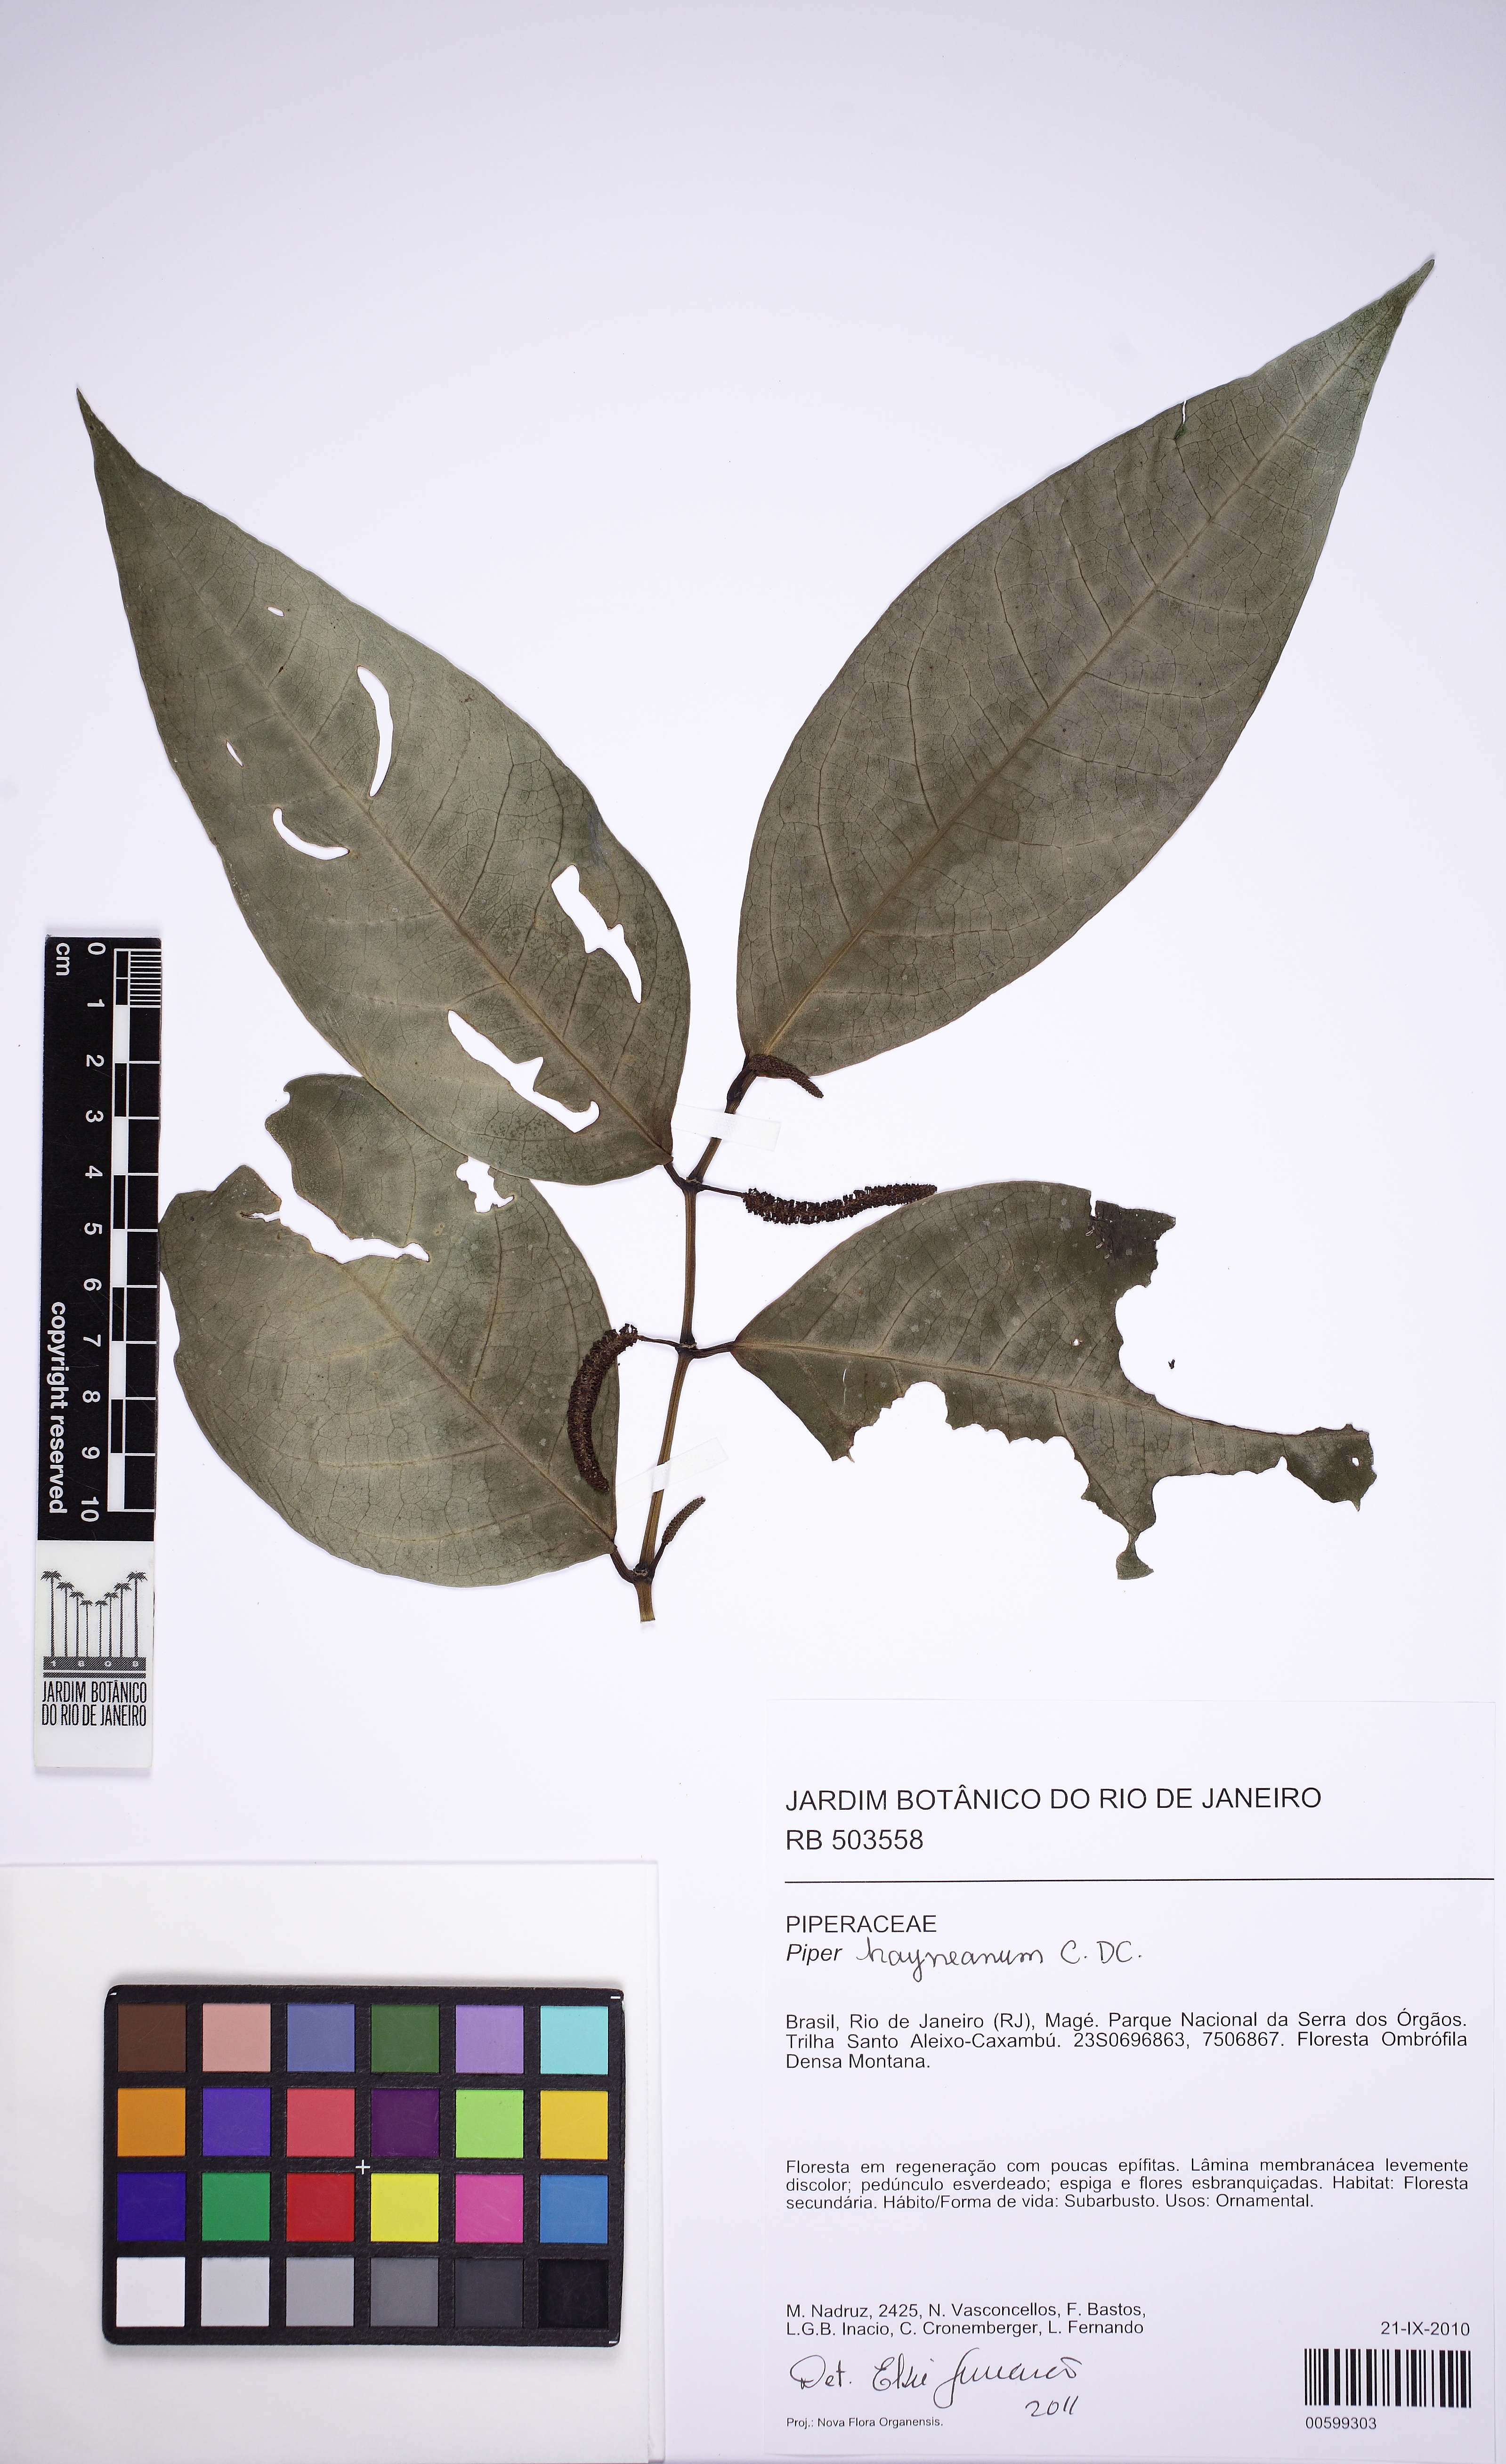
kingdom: Plantae
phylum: Tracheophyta
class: Magnoliopsida
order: Piperales
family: Piperaceae
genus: Piper
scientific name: Piper hayneanum
